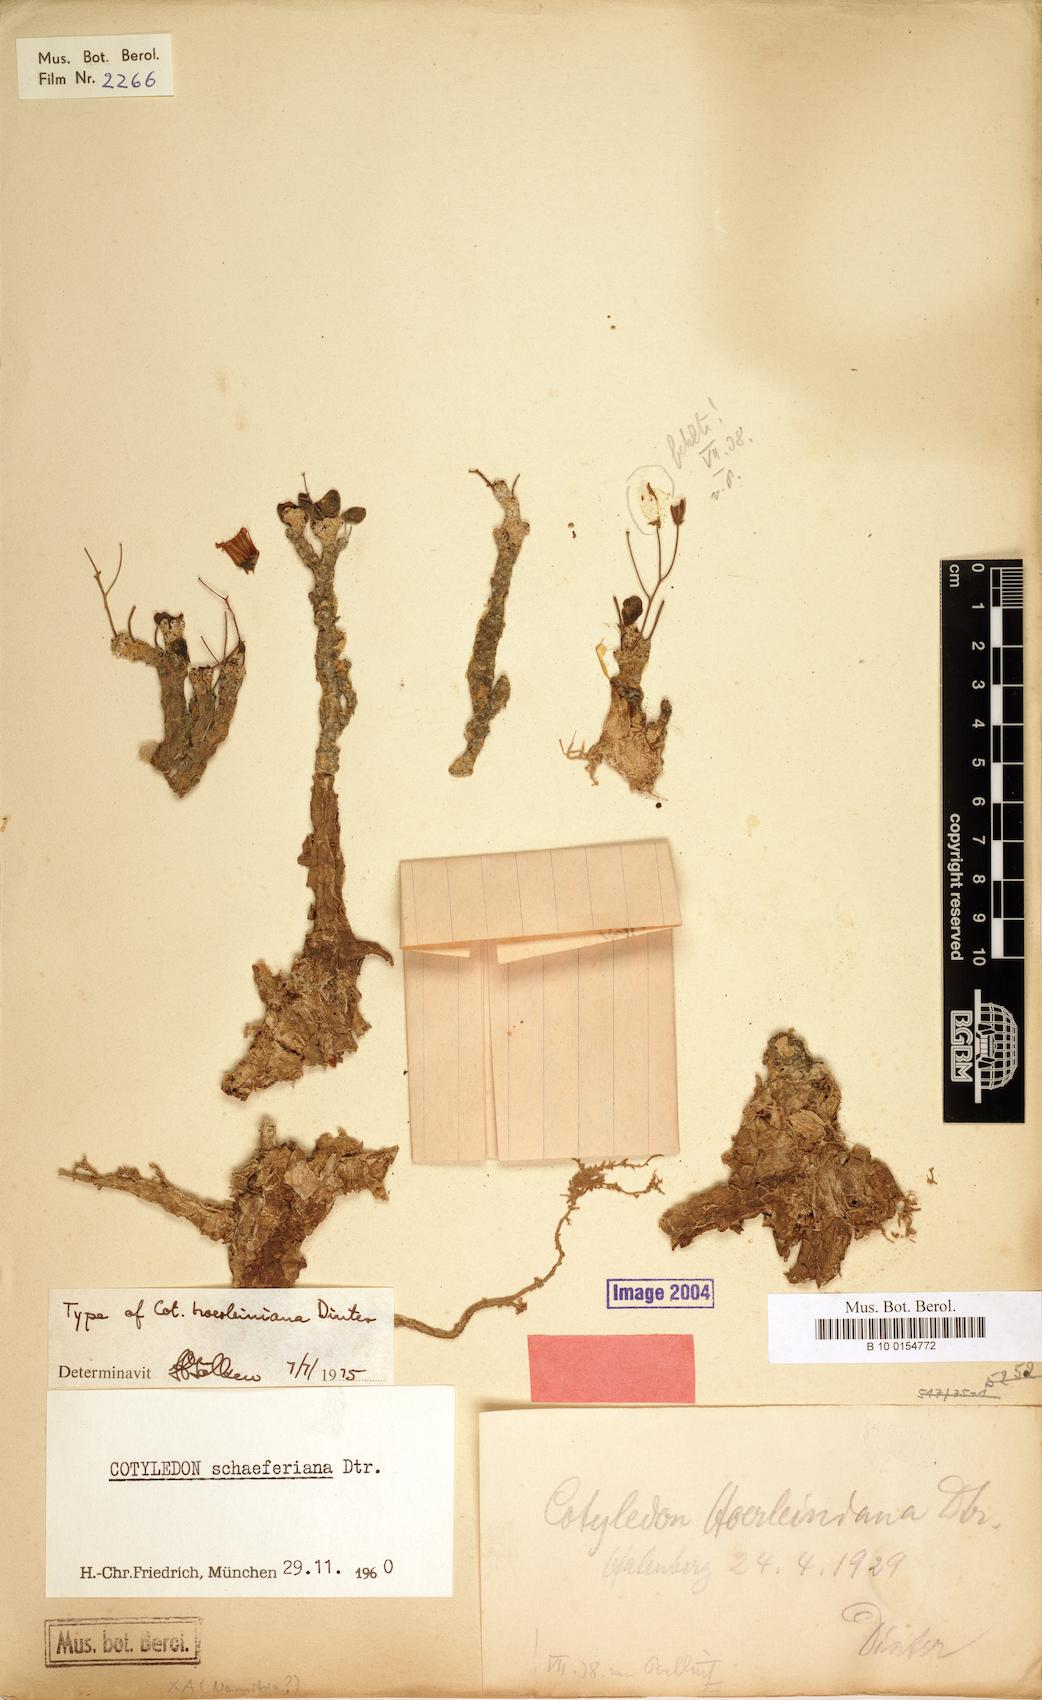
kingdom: Plantae
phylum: Tracheophyta
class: Magnoliopsida
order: Saxifragales
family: Crassulaceae
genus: Tylecodon
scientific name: Tylecodon schaeferianus
